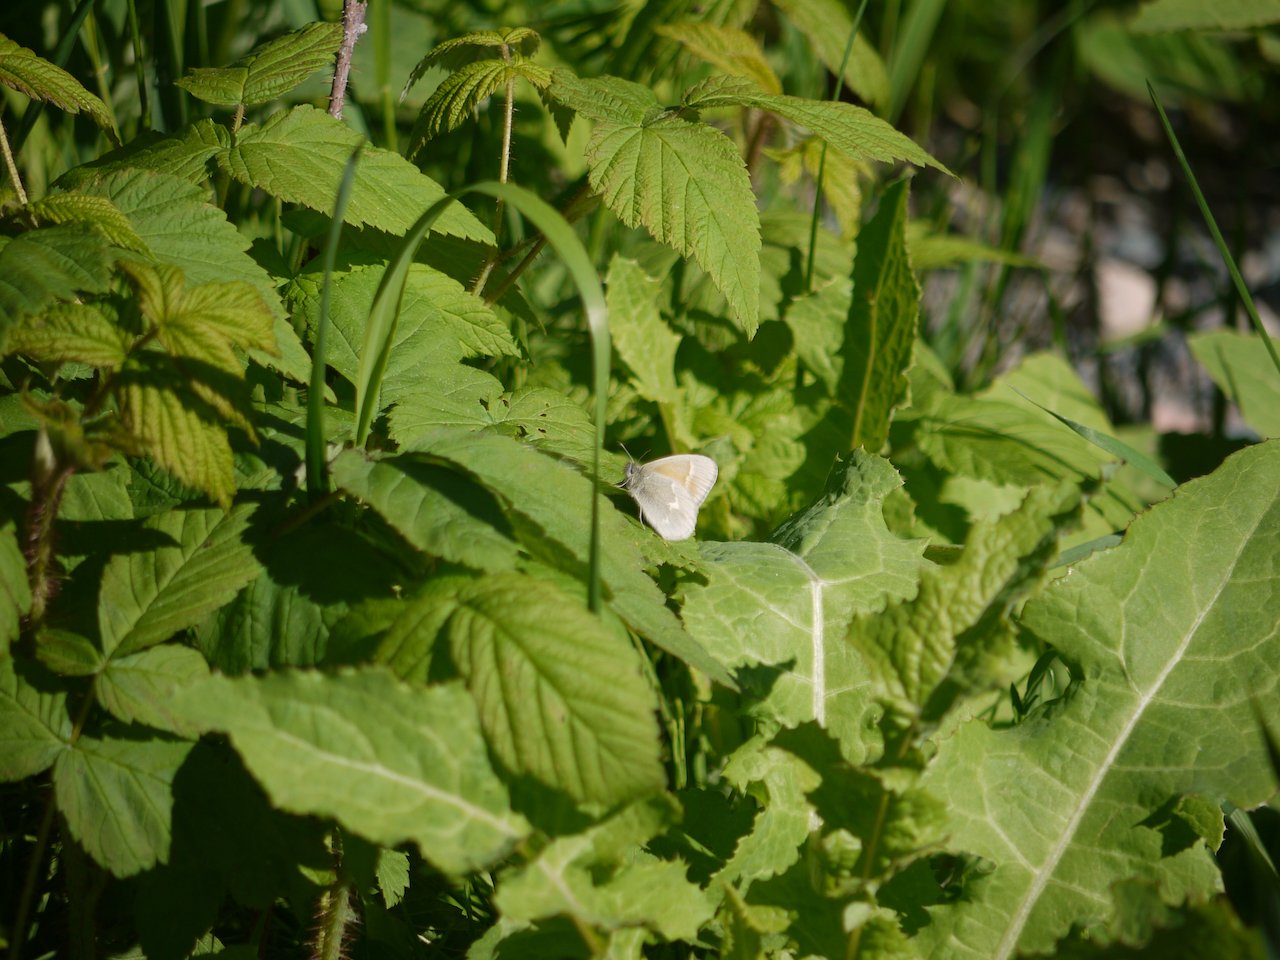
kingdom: Animalia
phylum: Arthropoda
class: Insecta
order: Lepidoptera
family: Nymphalidae
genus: Coenonympha
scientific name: Coenonympha tullia
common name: Large Heath
